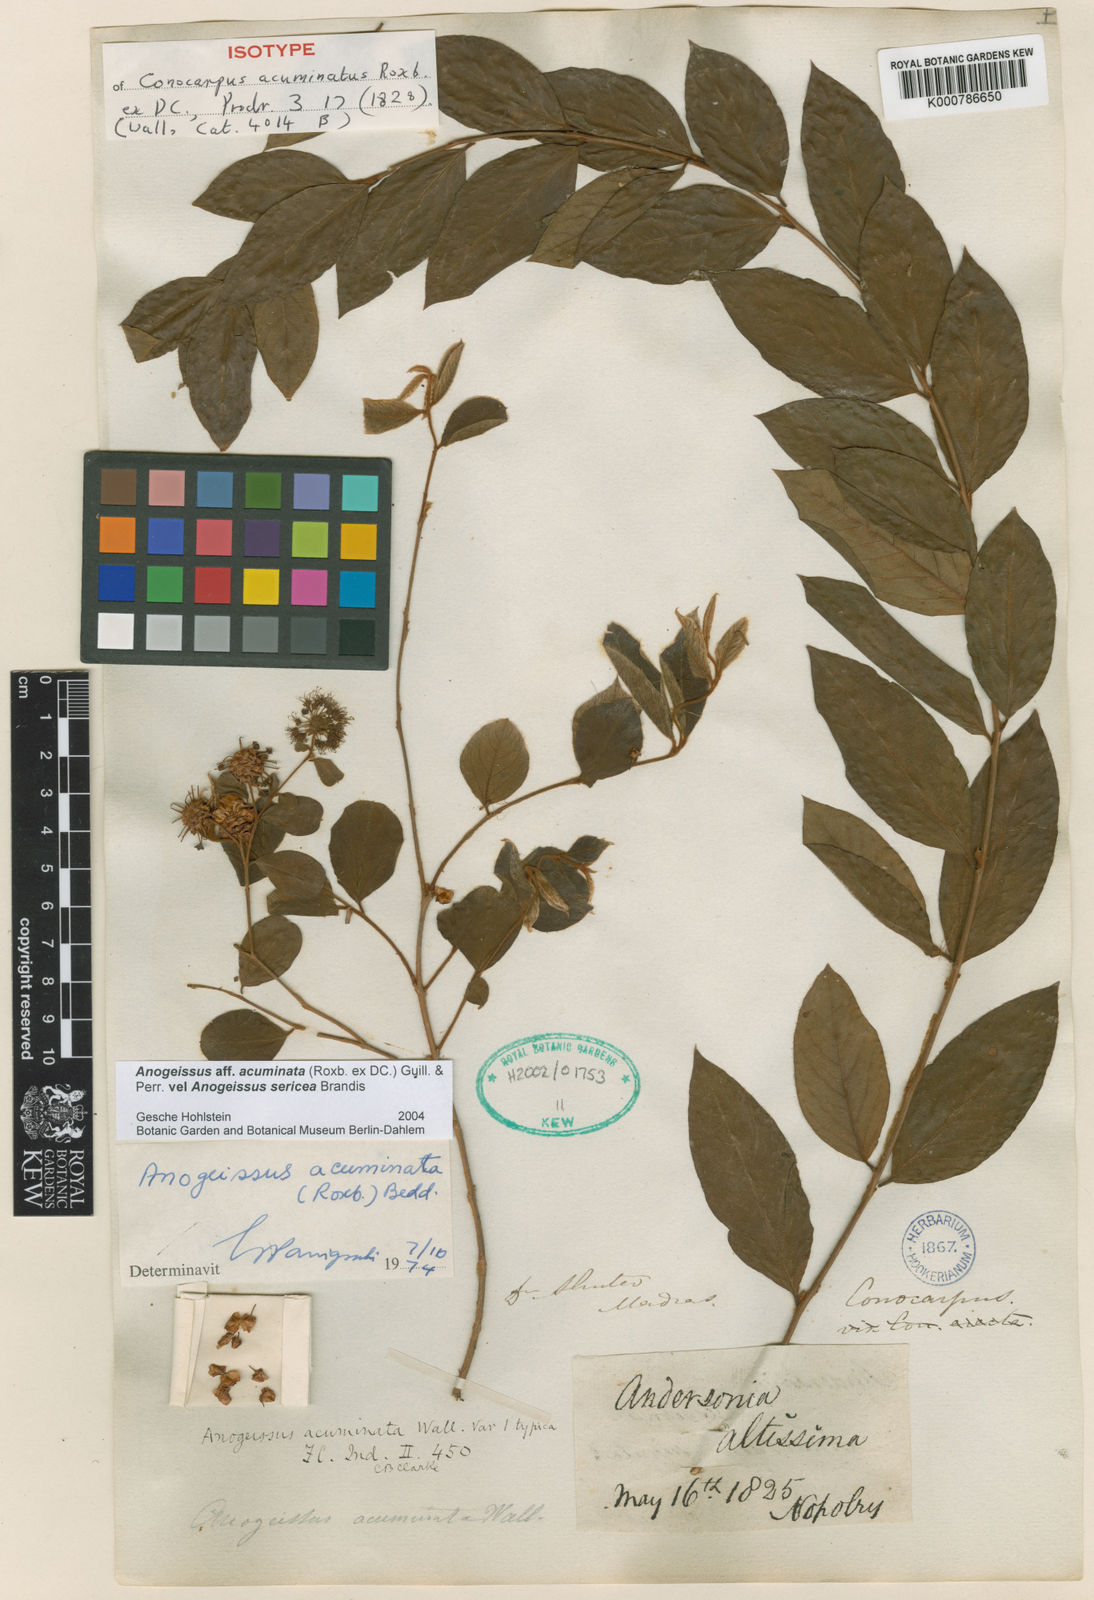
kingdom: Plantae
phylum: Tracheophyta
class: Magnoliopsida
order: Myrtales
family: Combretaceae
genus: Terminalia
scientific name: Terminalia phillyreifolia
